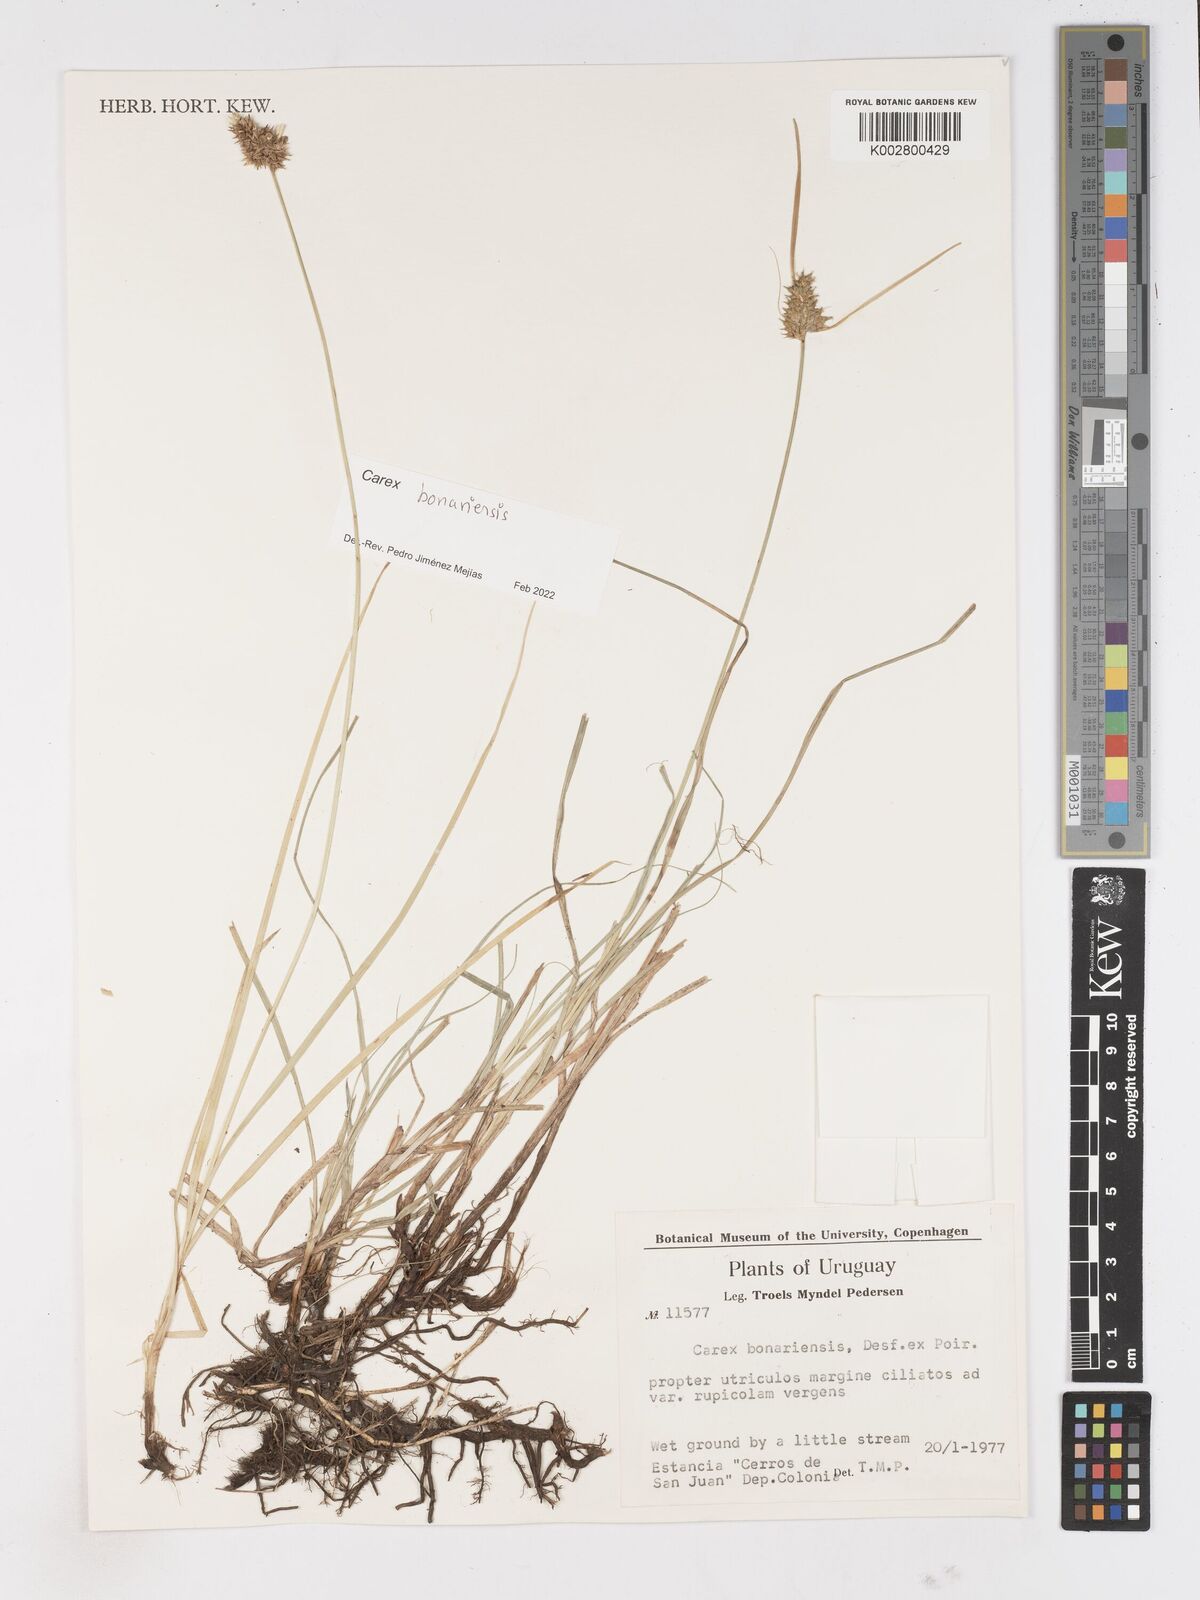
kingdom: Plantae
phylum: Tracheophyta
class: Liliopsida
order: Poales
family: Cyperaceae
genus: Carex
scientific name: Carex bonariensis
